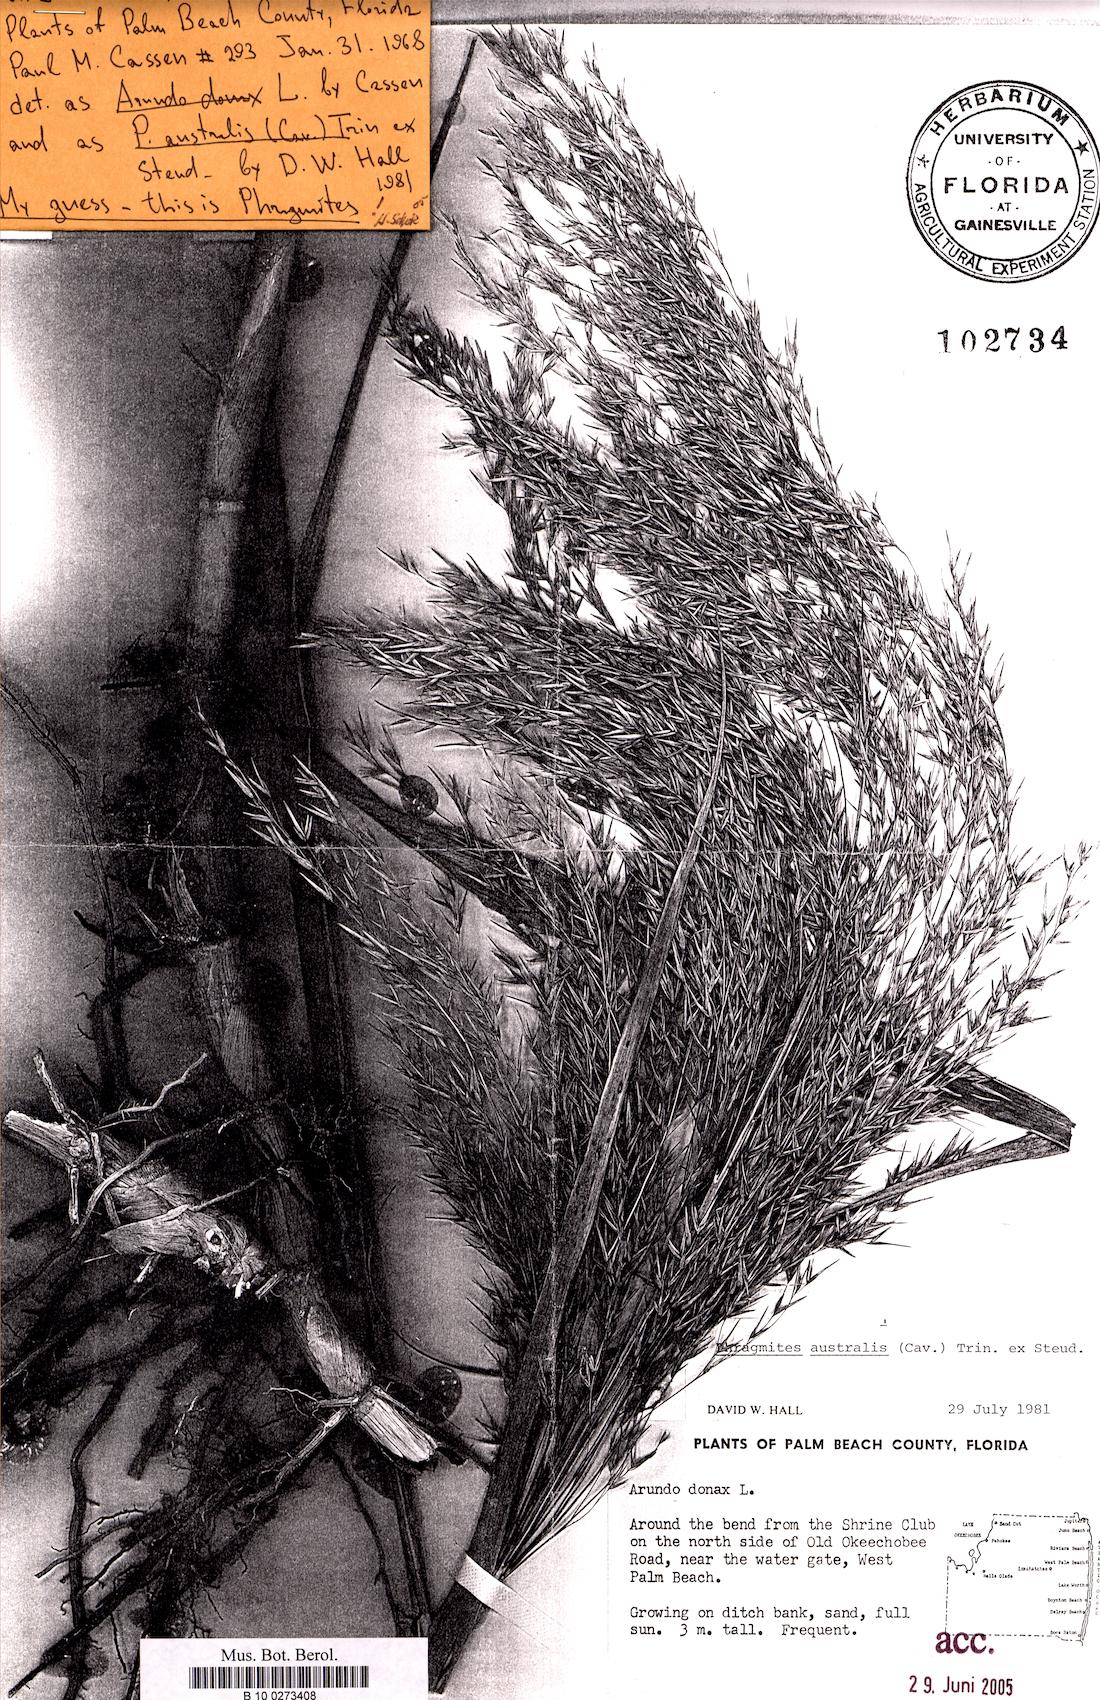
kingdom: Plantae
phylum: Tracheophyta
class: Liliopsida
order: Poales
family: Poaceae
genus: Phragmites
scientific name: Phragmites australis
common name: Common reed
